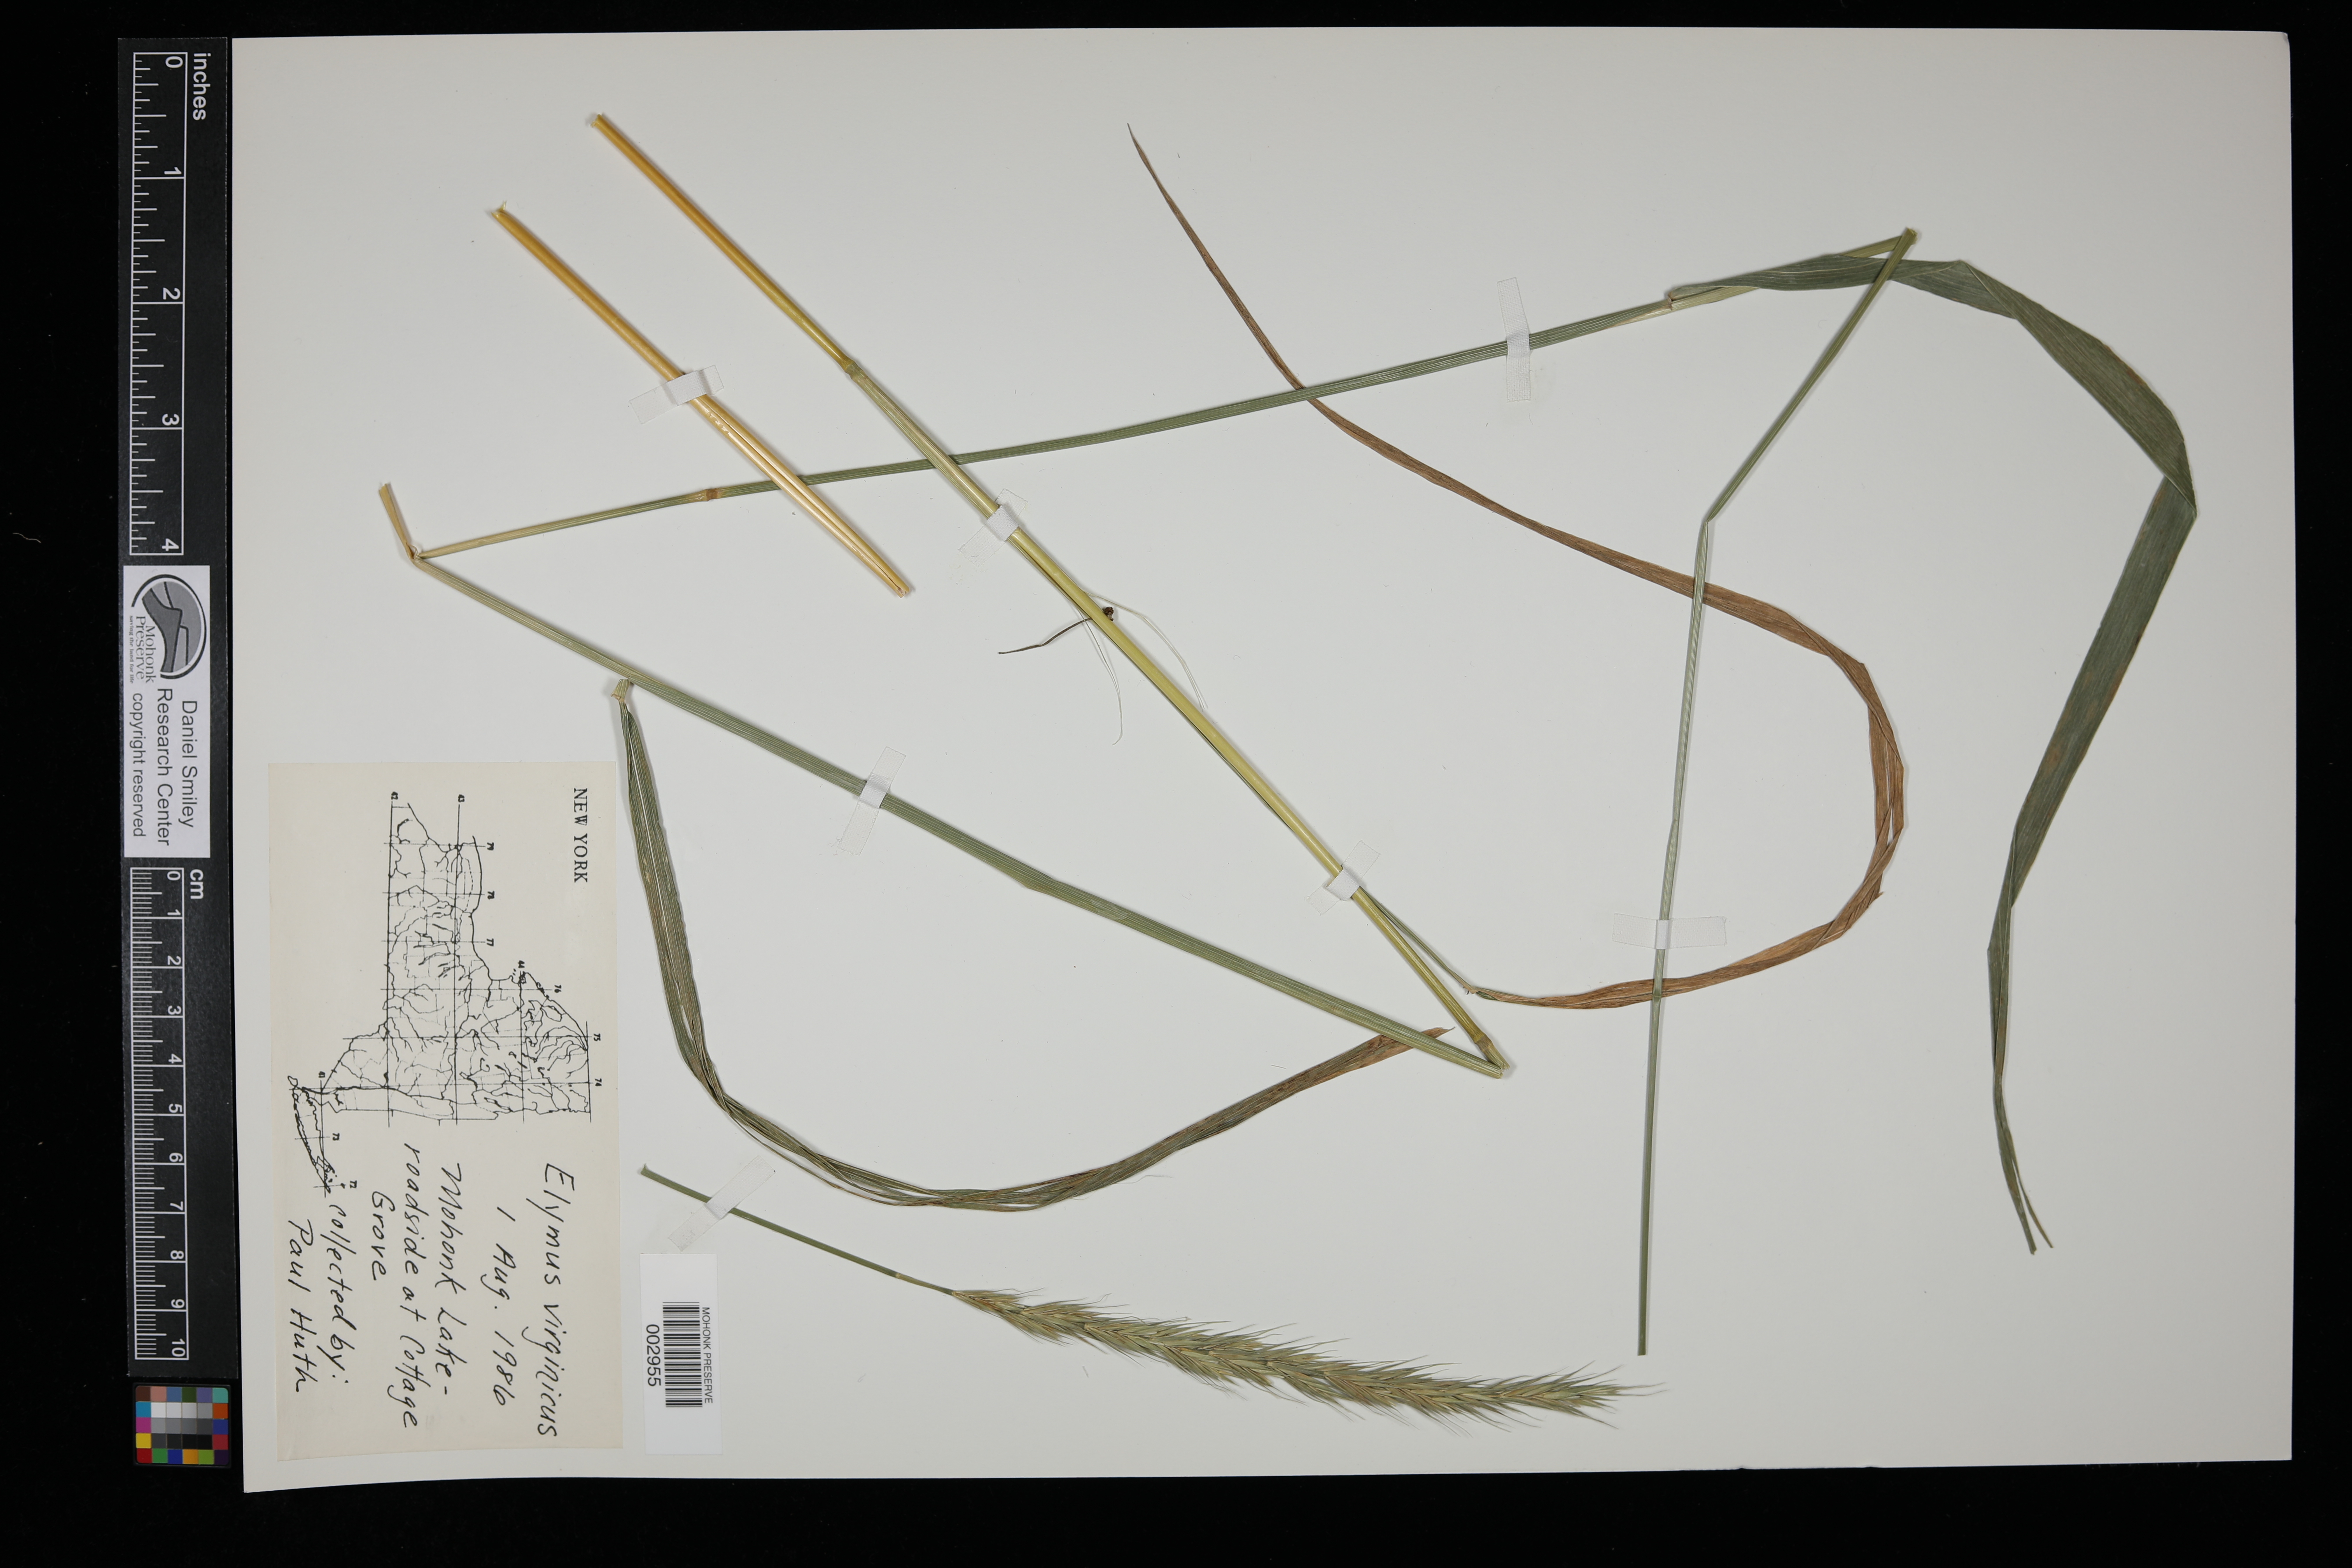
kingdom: Plantae
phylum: Tracheophyta
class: Liliopsida
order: Poales
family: Poaceae
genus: Elymus
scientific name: Elymus virginicus
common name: Common eastern wildrye
